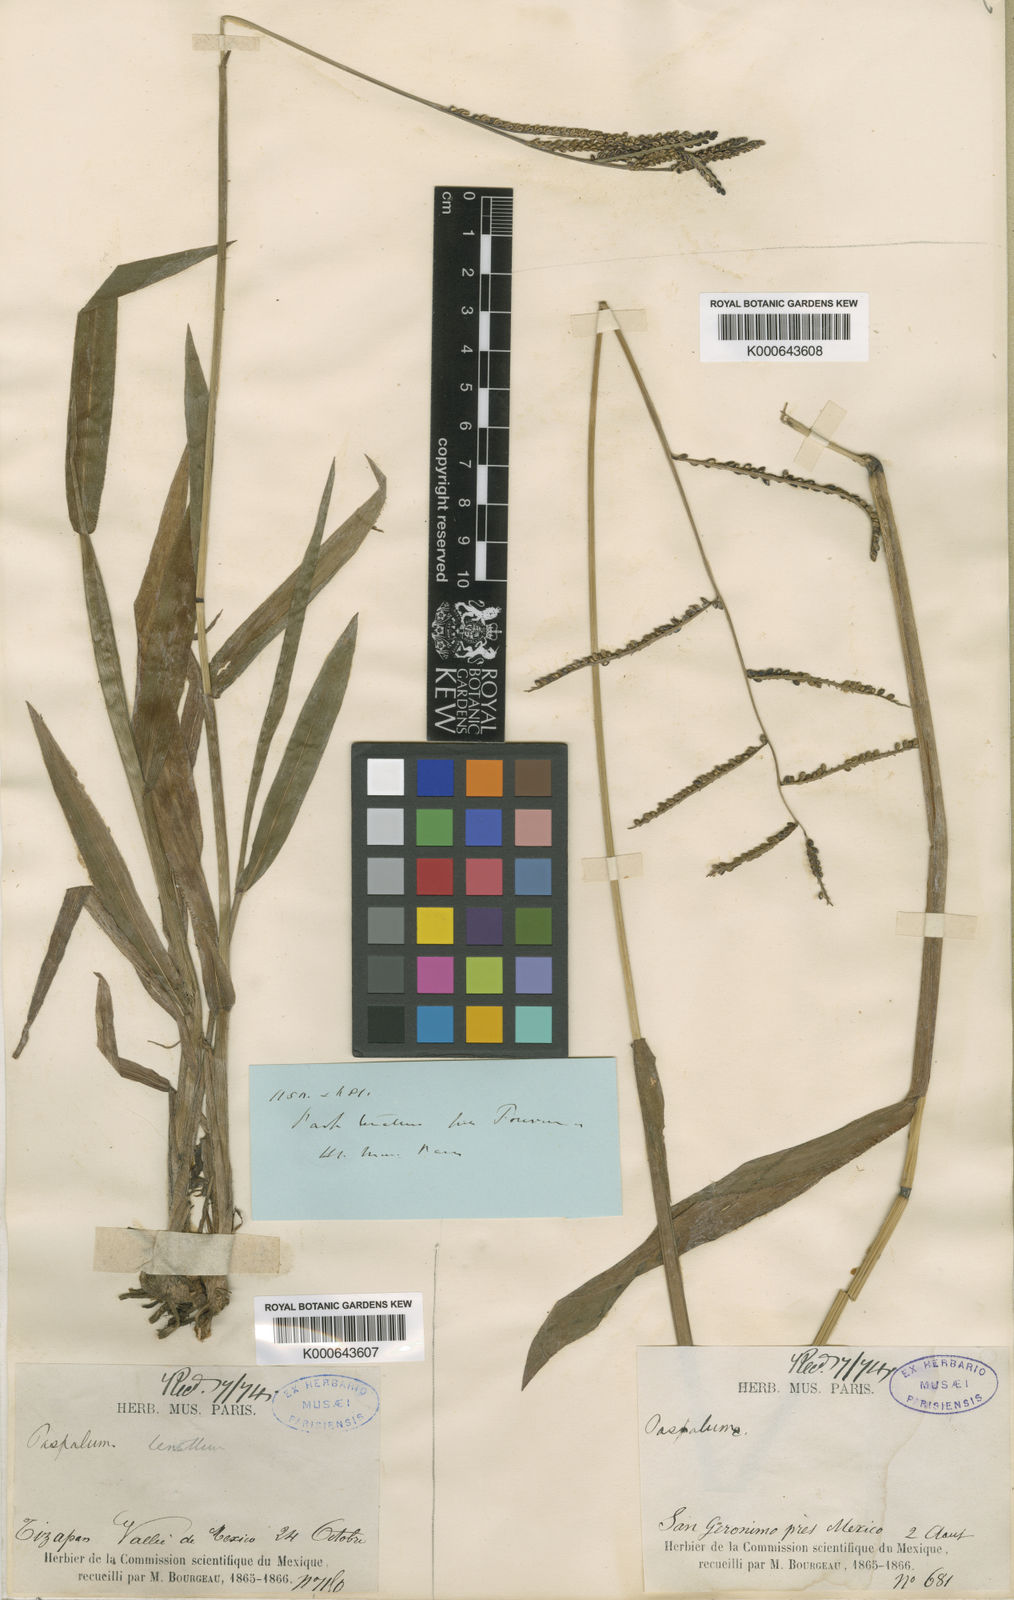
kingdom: Plantae
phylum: Tracheophyta
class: Liliopsida
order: Poales
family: Poaceae
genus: Paspalum
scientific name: Paspalum tenellum
